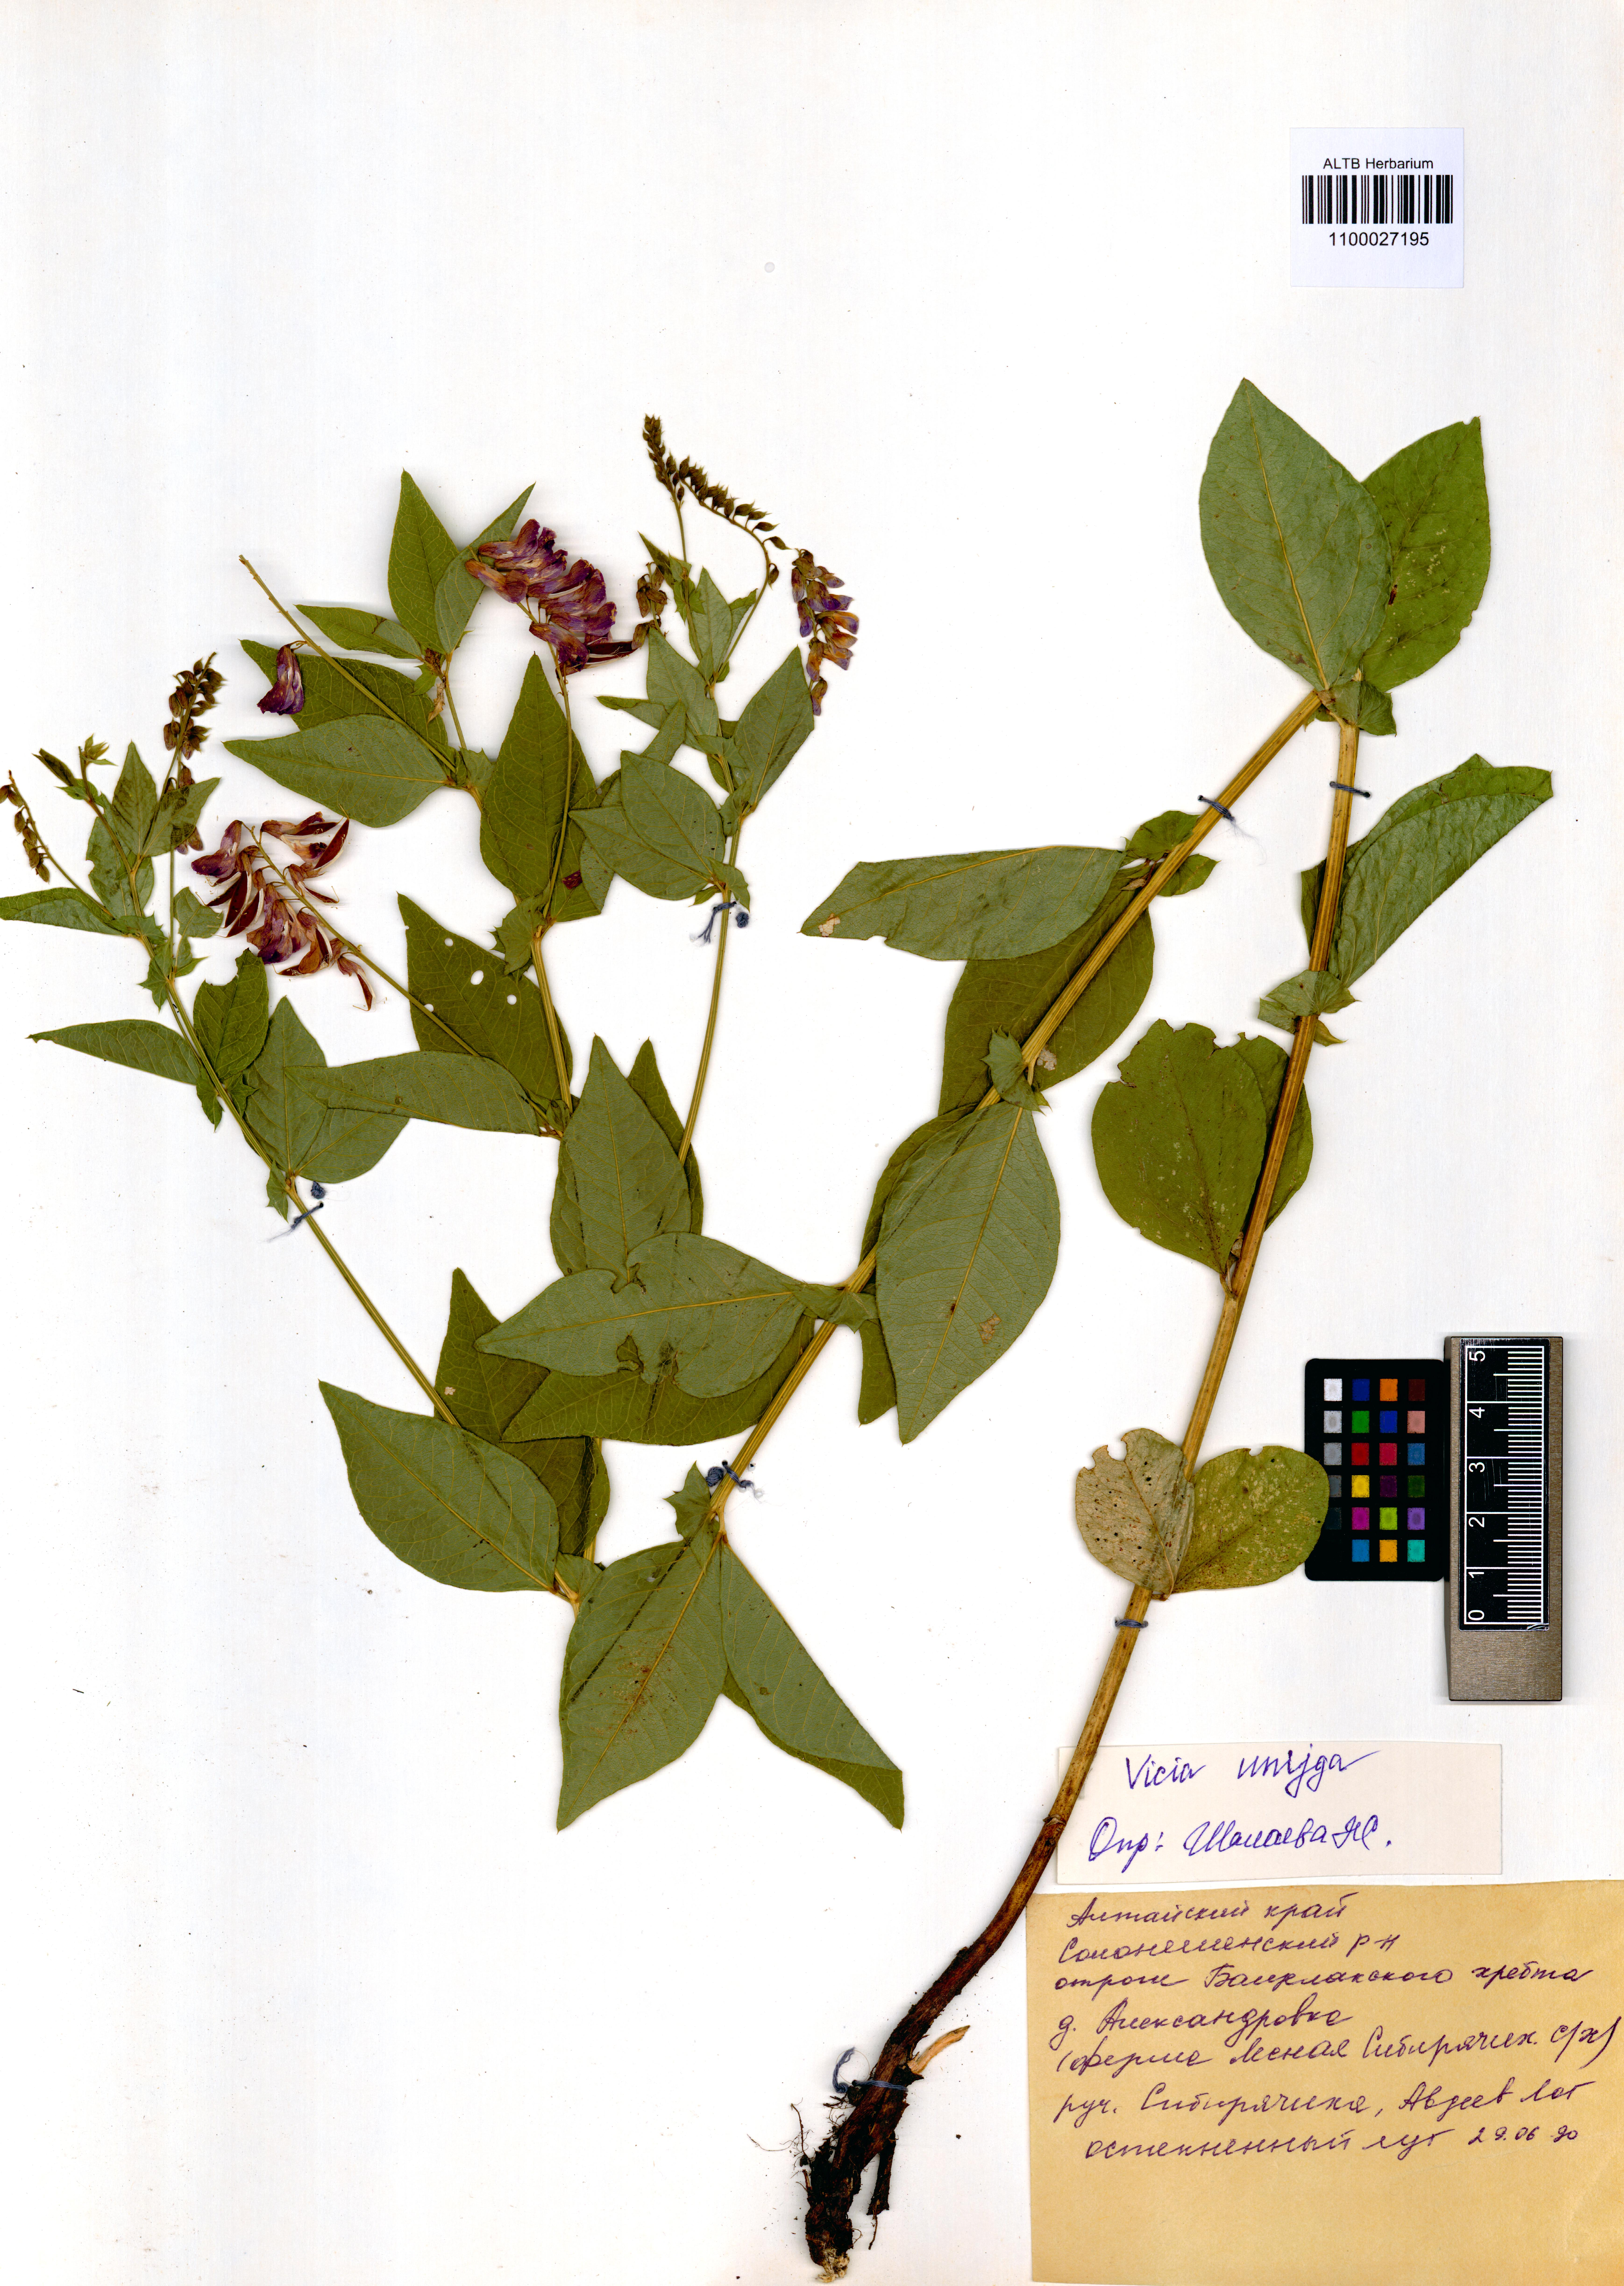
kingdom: Plantae
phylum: Tracheophyta
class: Magnoliopsida
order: Fabales
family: Fabaceae
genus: Vicia
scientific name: Vicia unijuga
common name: Two-leaf vetch
